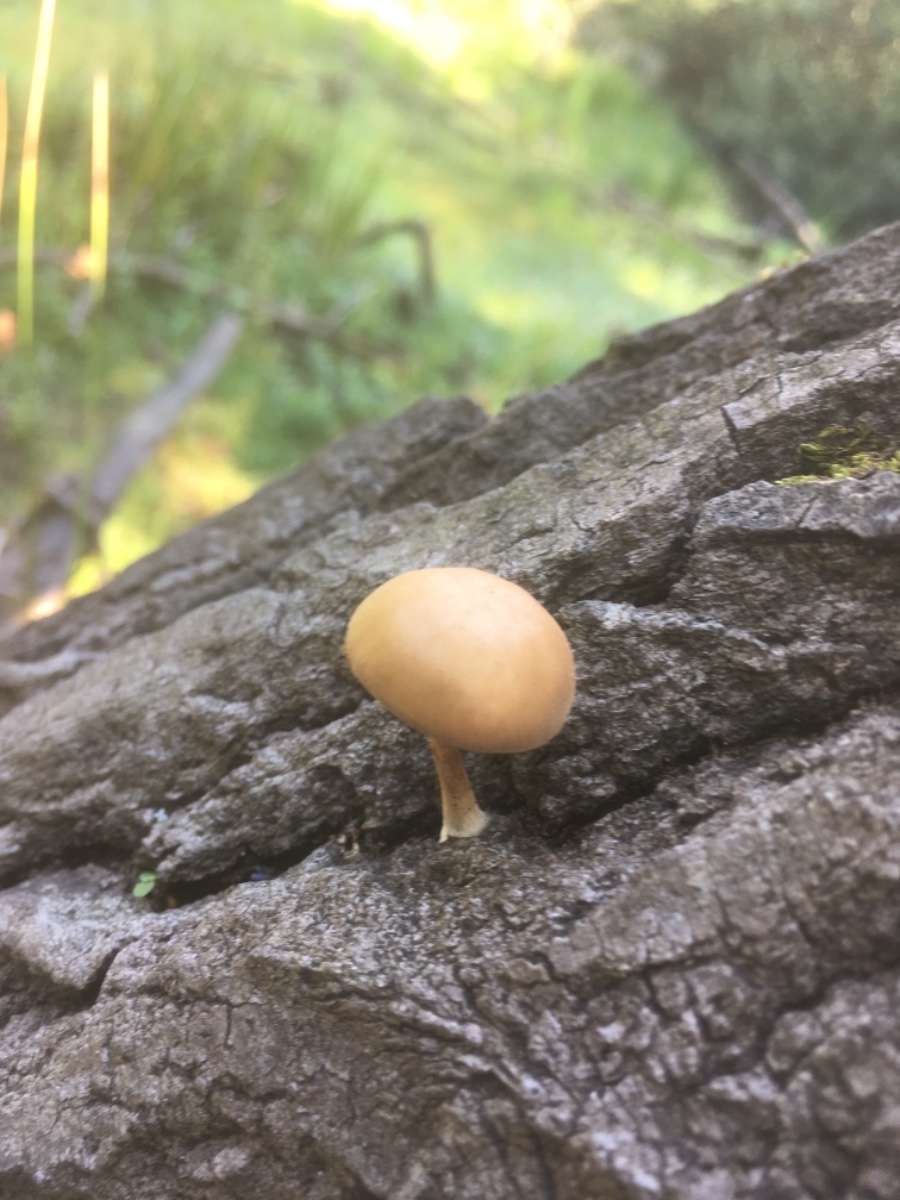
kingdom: Fungi
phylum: Basidiomycota
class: Agaricomycetes
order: Agaricales
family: Crepidotaceae
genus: Simocybe
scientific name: Simocybe sumptuosa
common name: stor skyggehat
